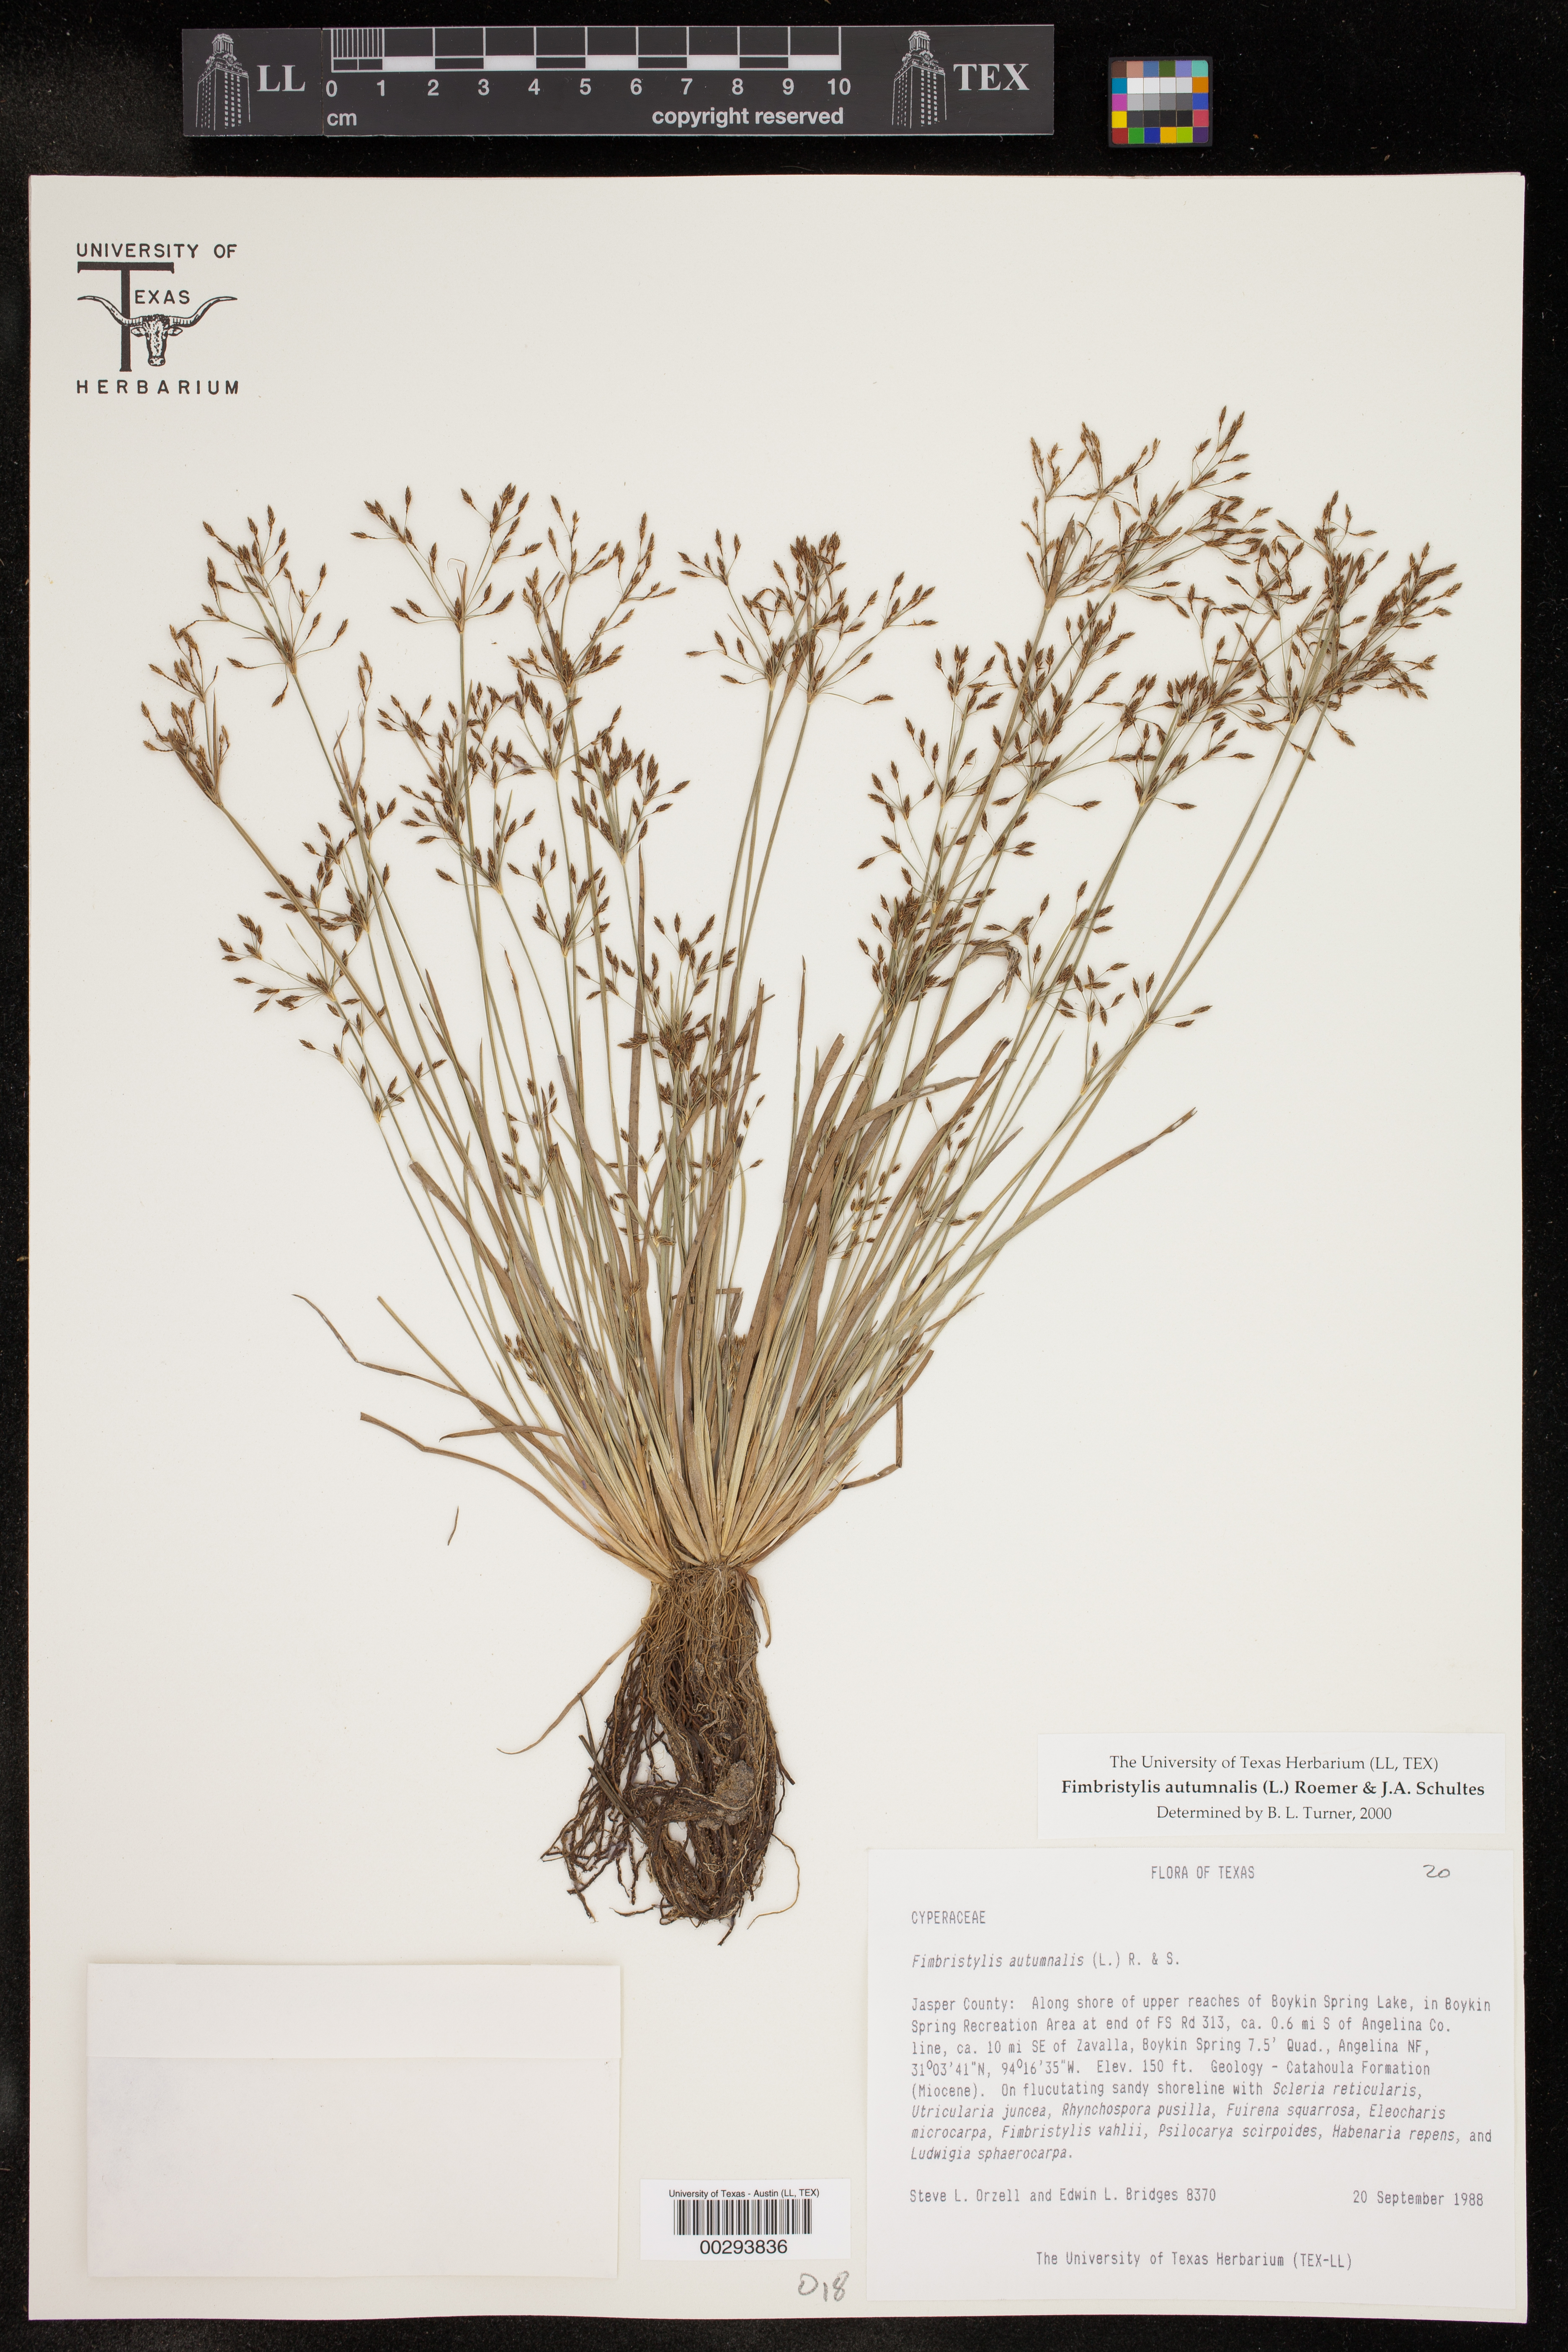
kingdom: Plantae
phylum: Tracheophyta
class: Liliopsida
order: Poales
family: Cyperaceae
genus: Fimbristylis
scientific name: Fimbristylis autumnalis
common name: Slender fimbristylis
